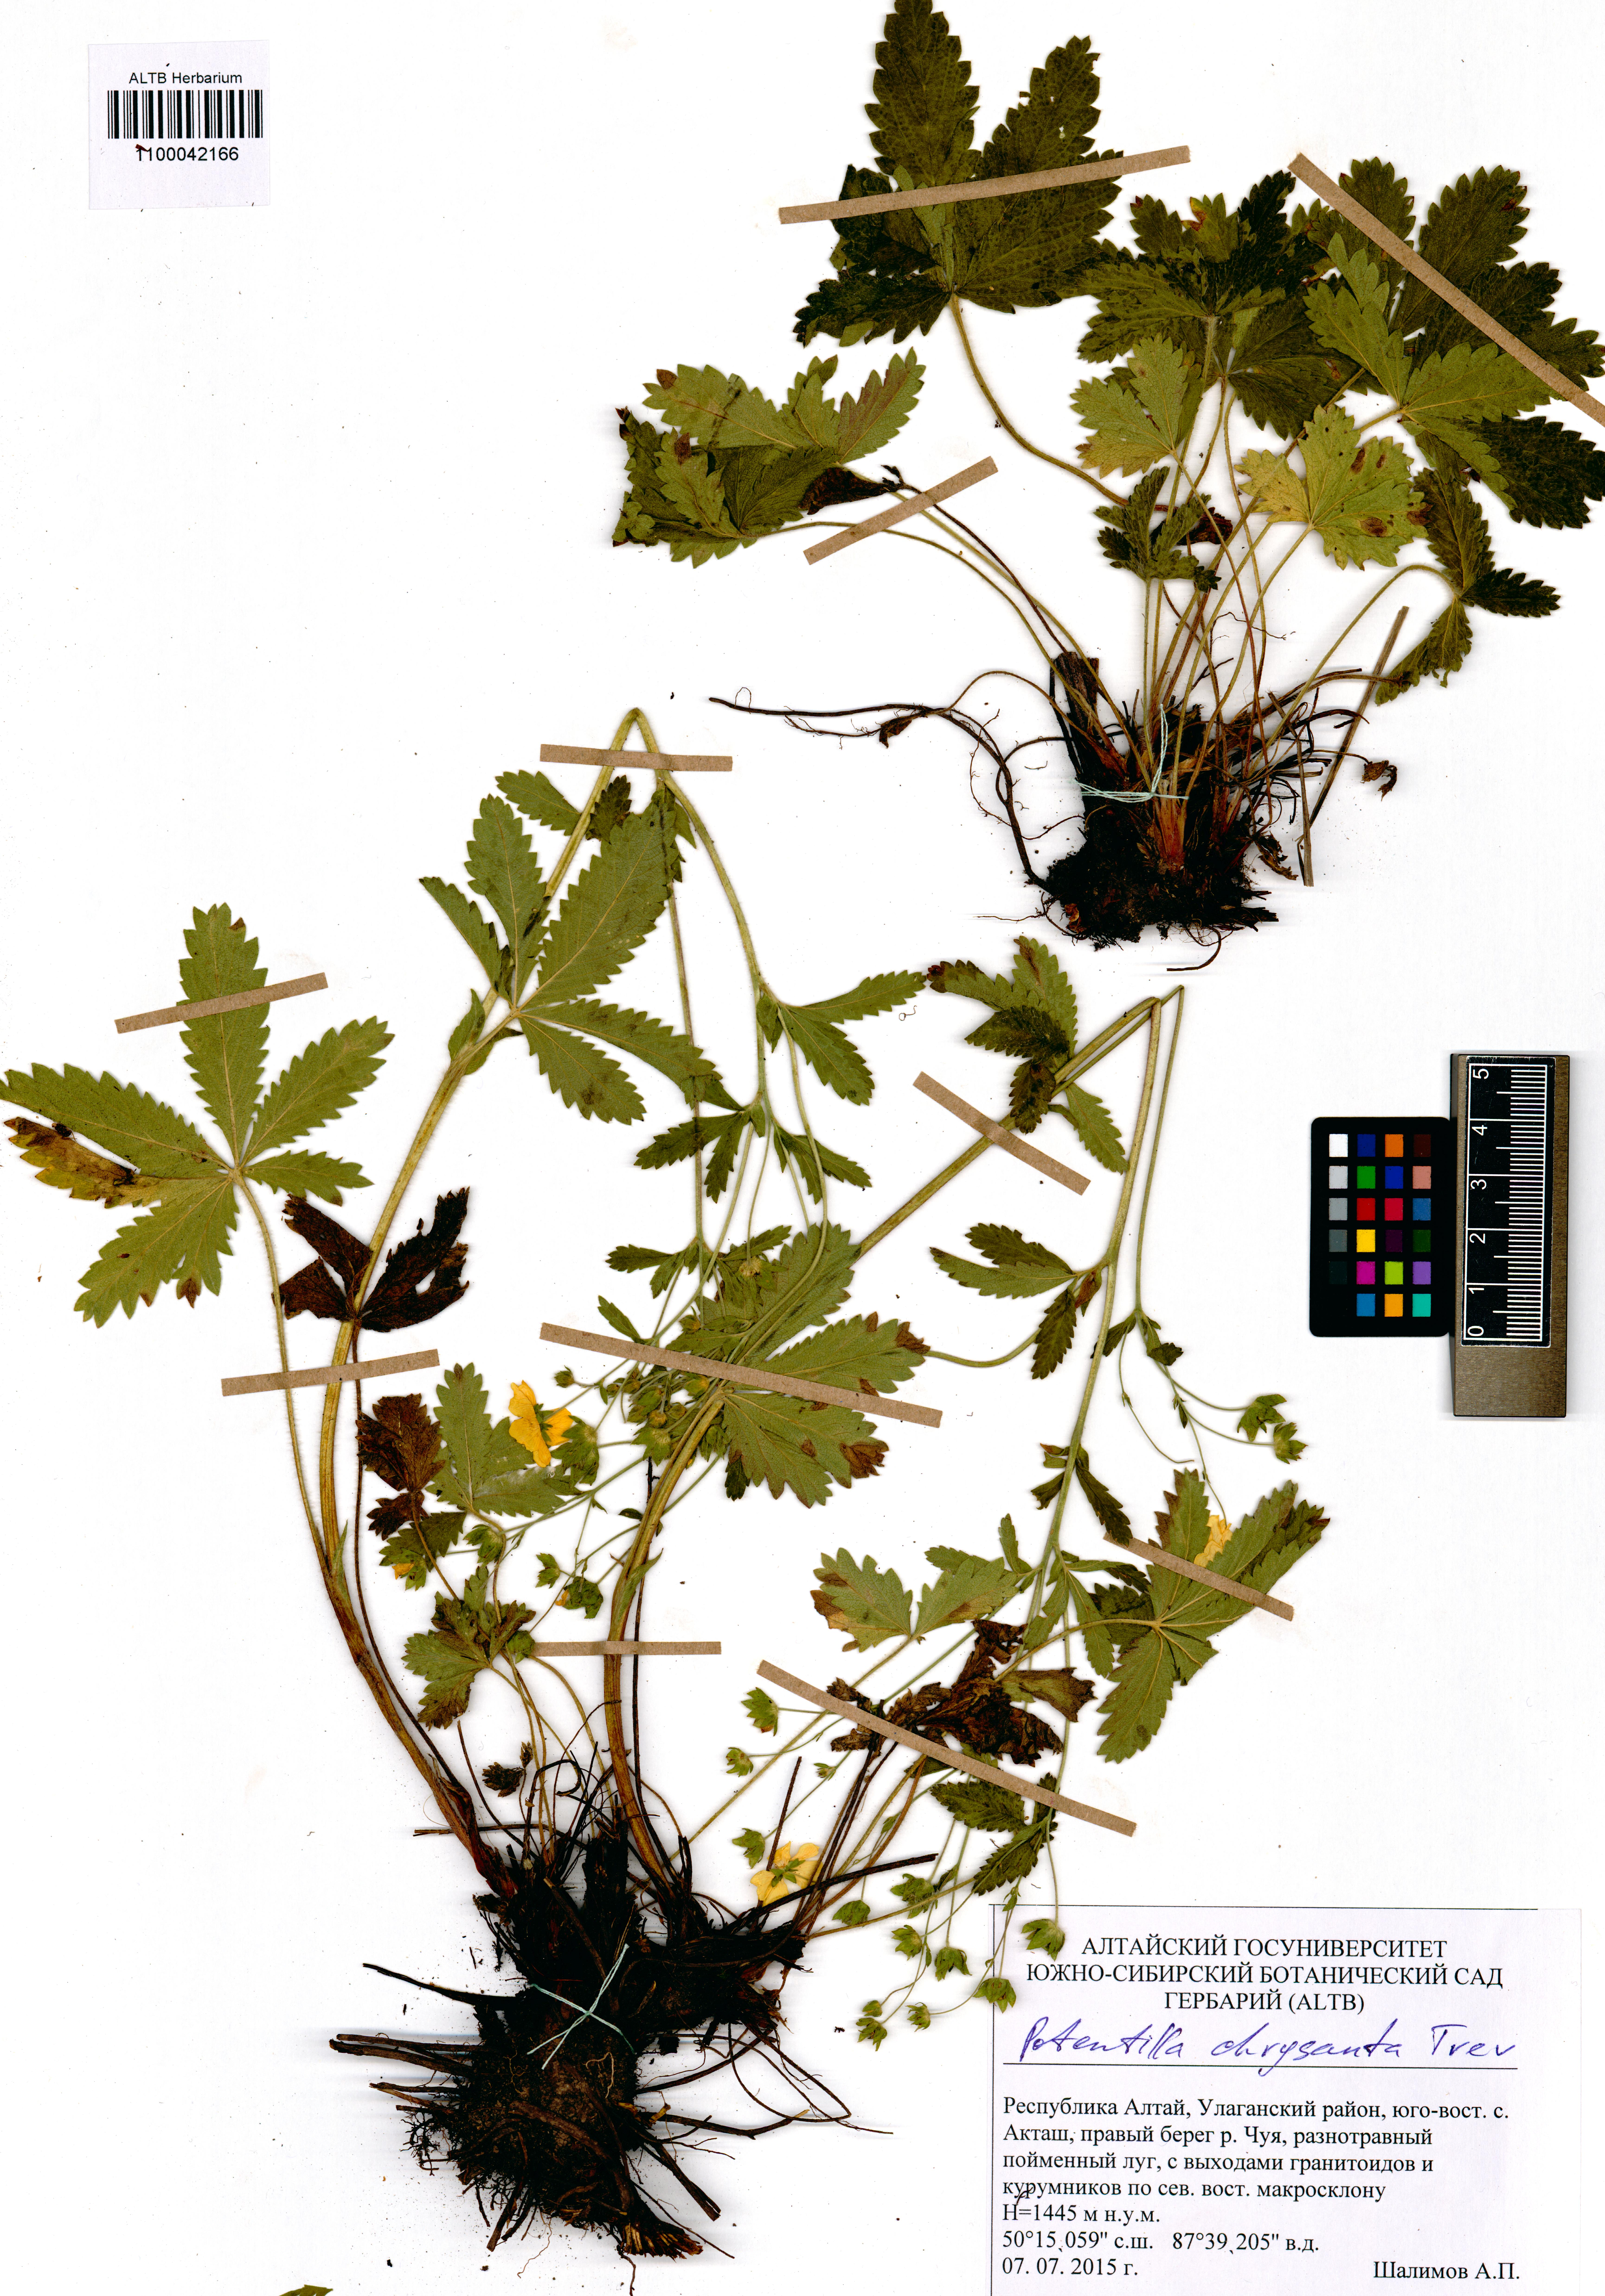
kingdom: Plantae
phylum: Tracheophyta
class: Magnoliopsida
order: Rosales
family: Rosaceae
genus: Potentilla
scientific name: Potentilla chrysantha
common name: Thuringian cinquefoil
